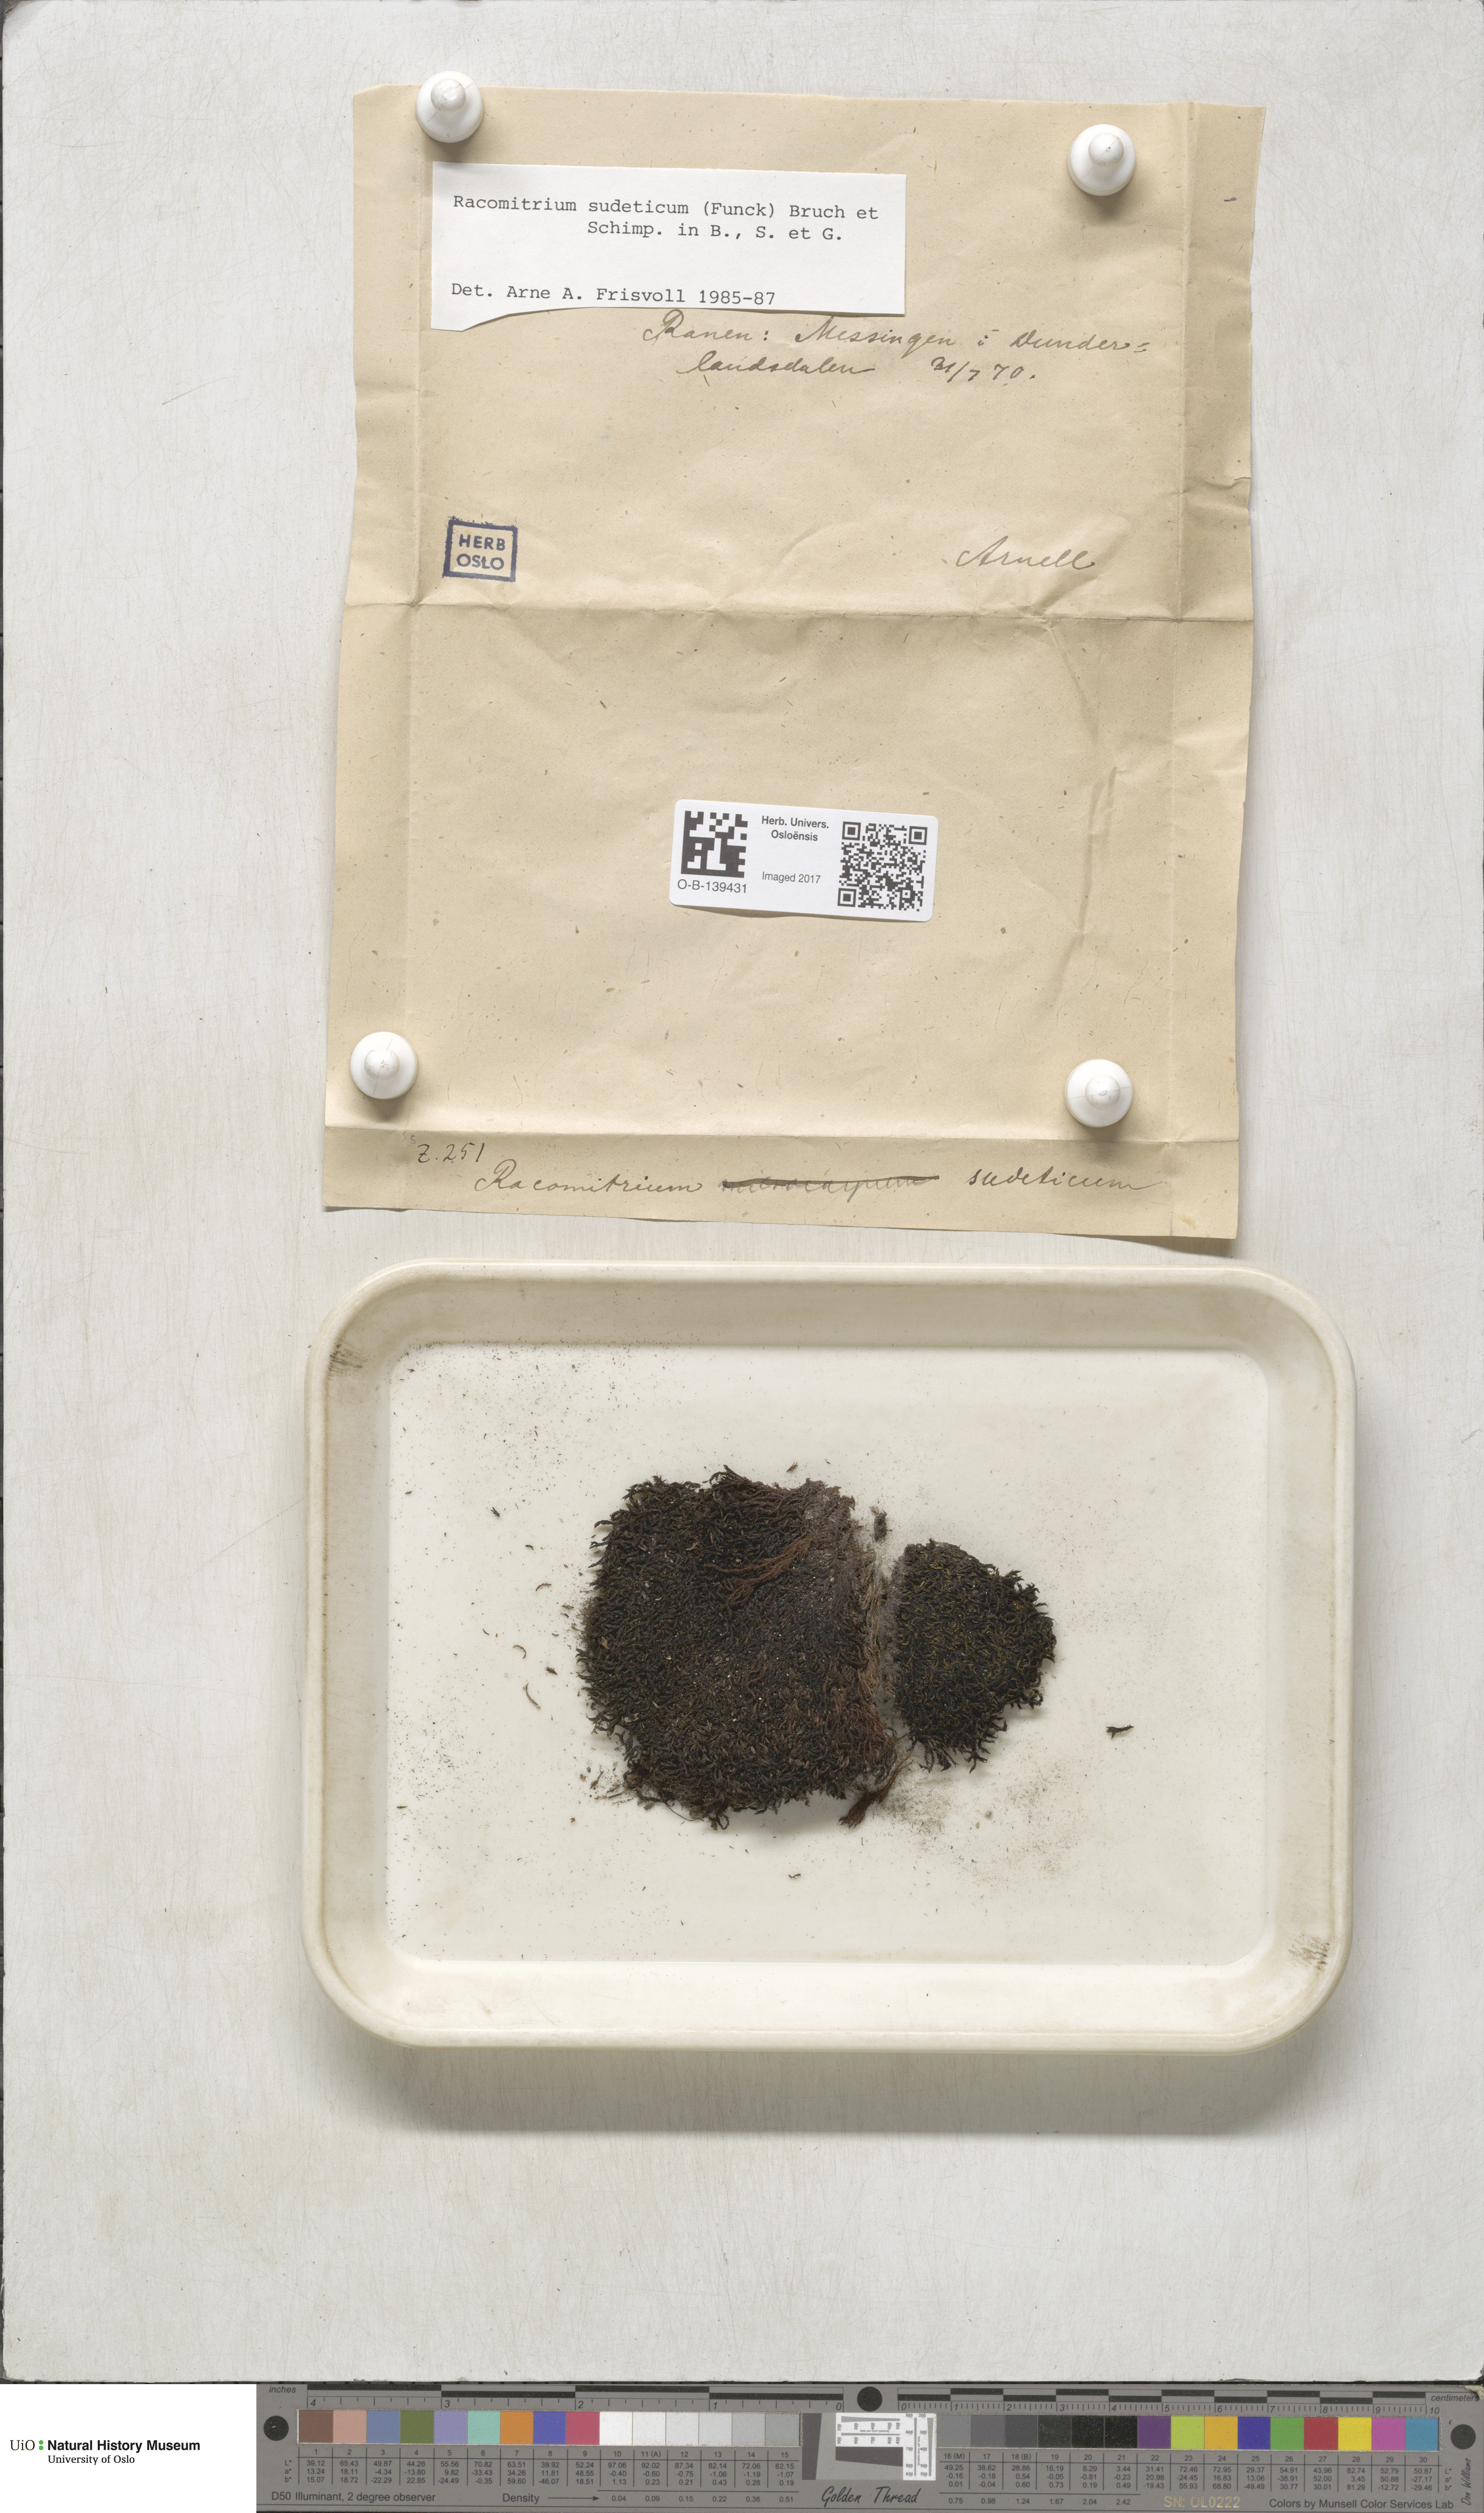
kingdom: Plantae
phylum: Bryophyta
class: Bryopsida
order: Grimmiales
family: Grimmiaceae
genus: Bucklandiella
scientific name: Bucklandiella sudetica
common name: Slender fringe-moss
